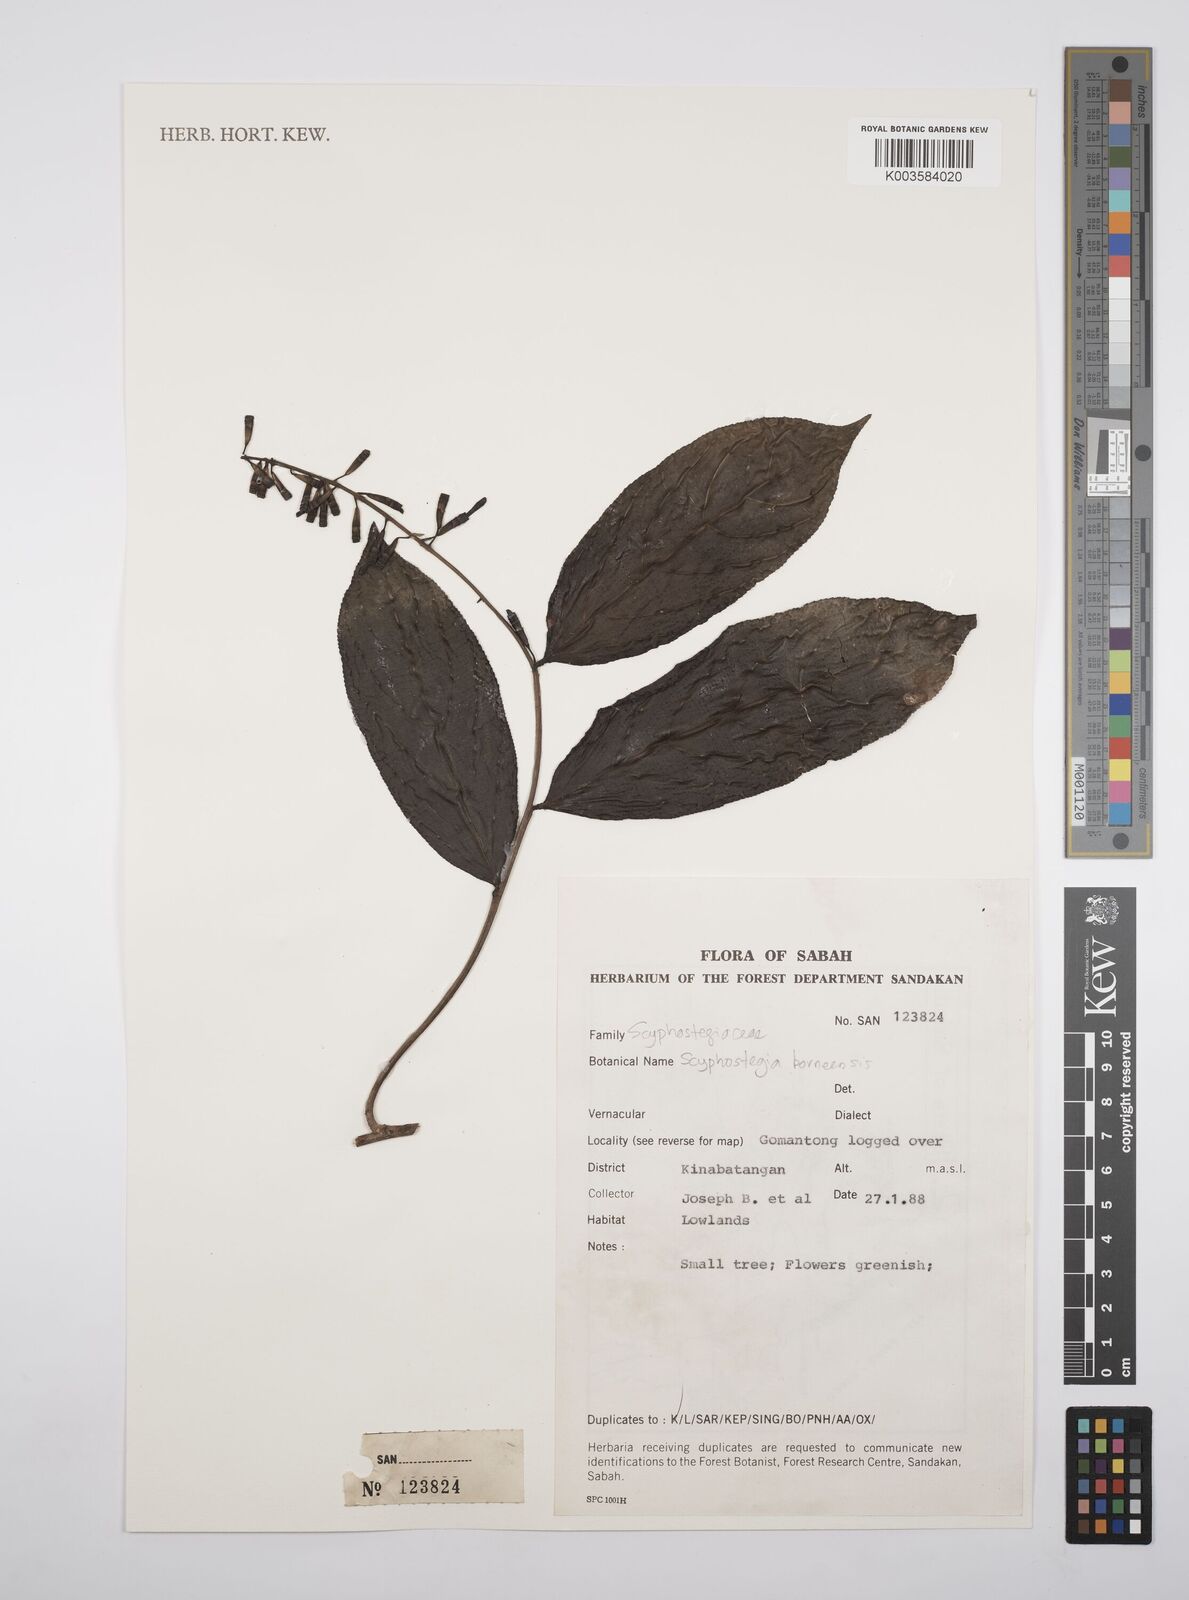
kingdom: Plantae
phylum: Tracheophyta
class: Magnoliopsida
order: Malpighiales
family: Salicaceae
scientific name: Salicaceae
